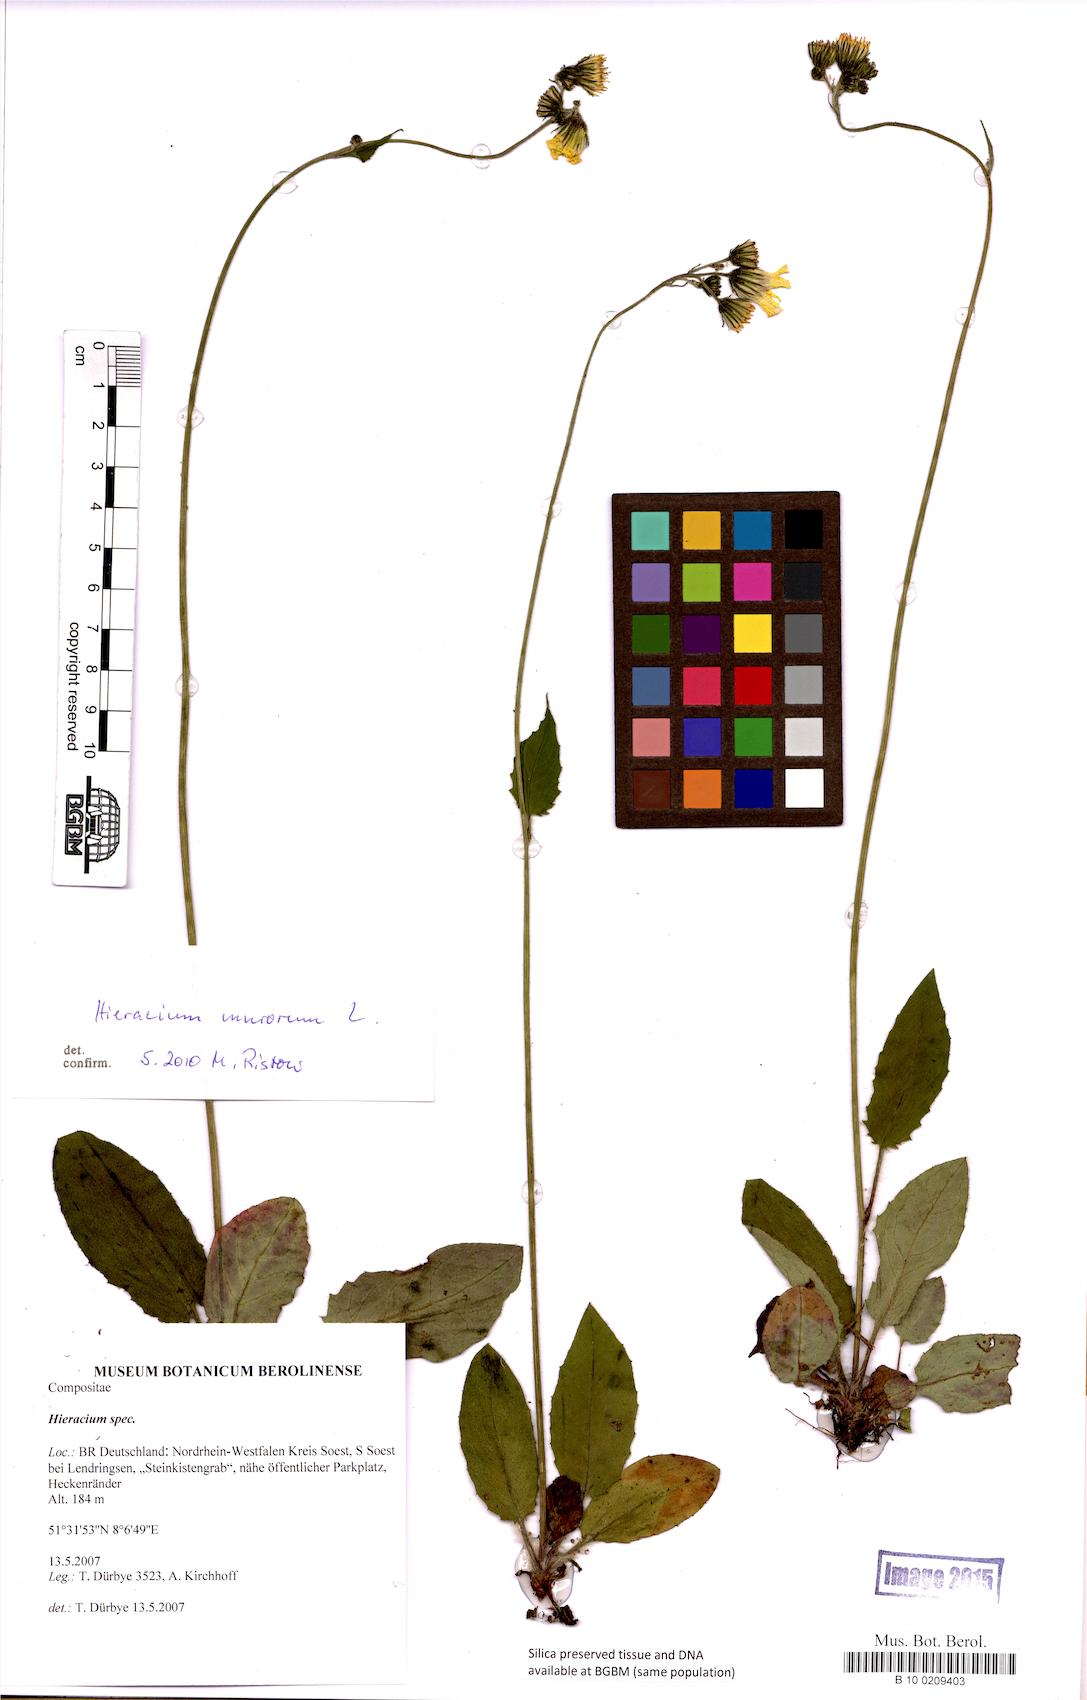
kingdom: Plantae
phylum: Tracheophyta
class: Magnoliopsida
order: Asterales
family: Asteraceae
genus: Hieracium
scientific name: Hieracium
